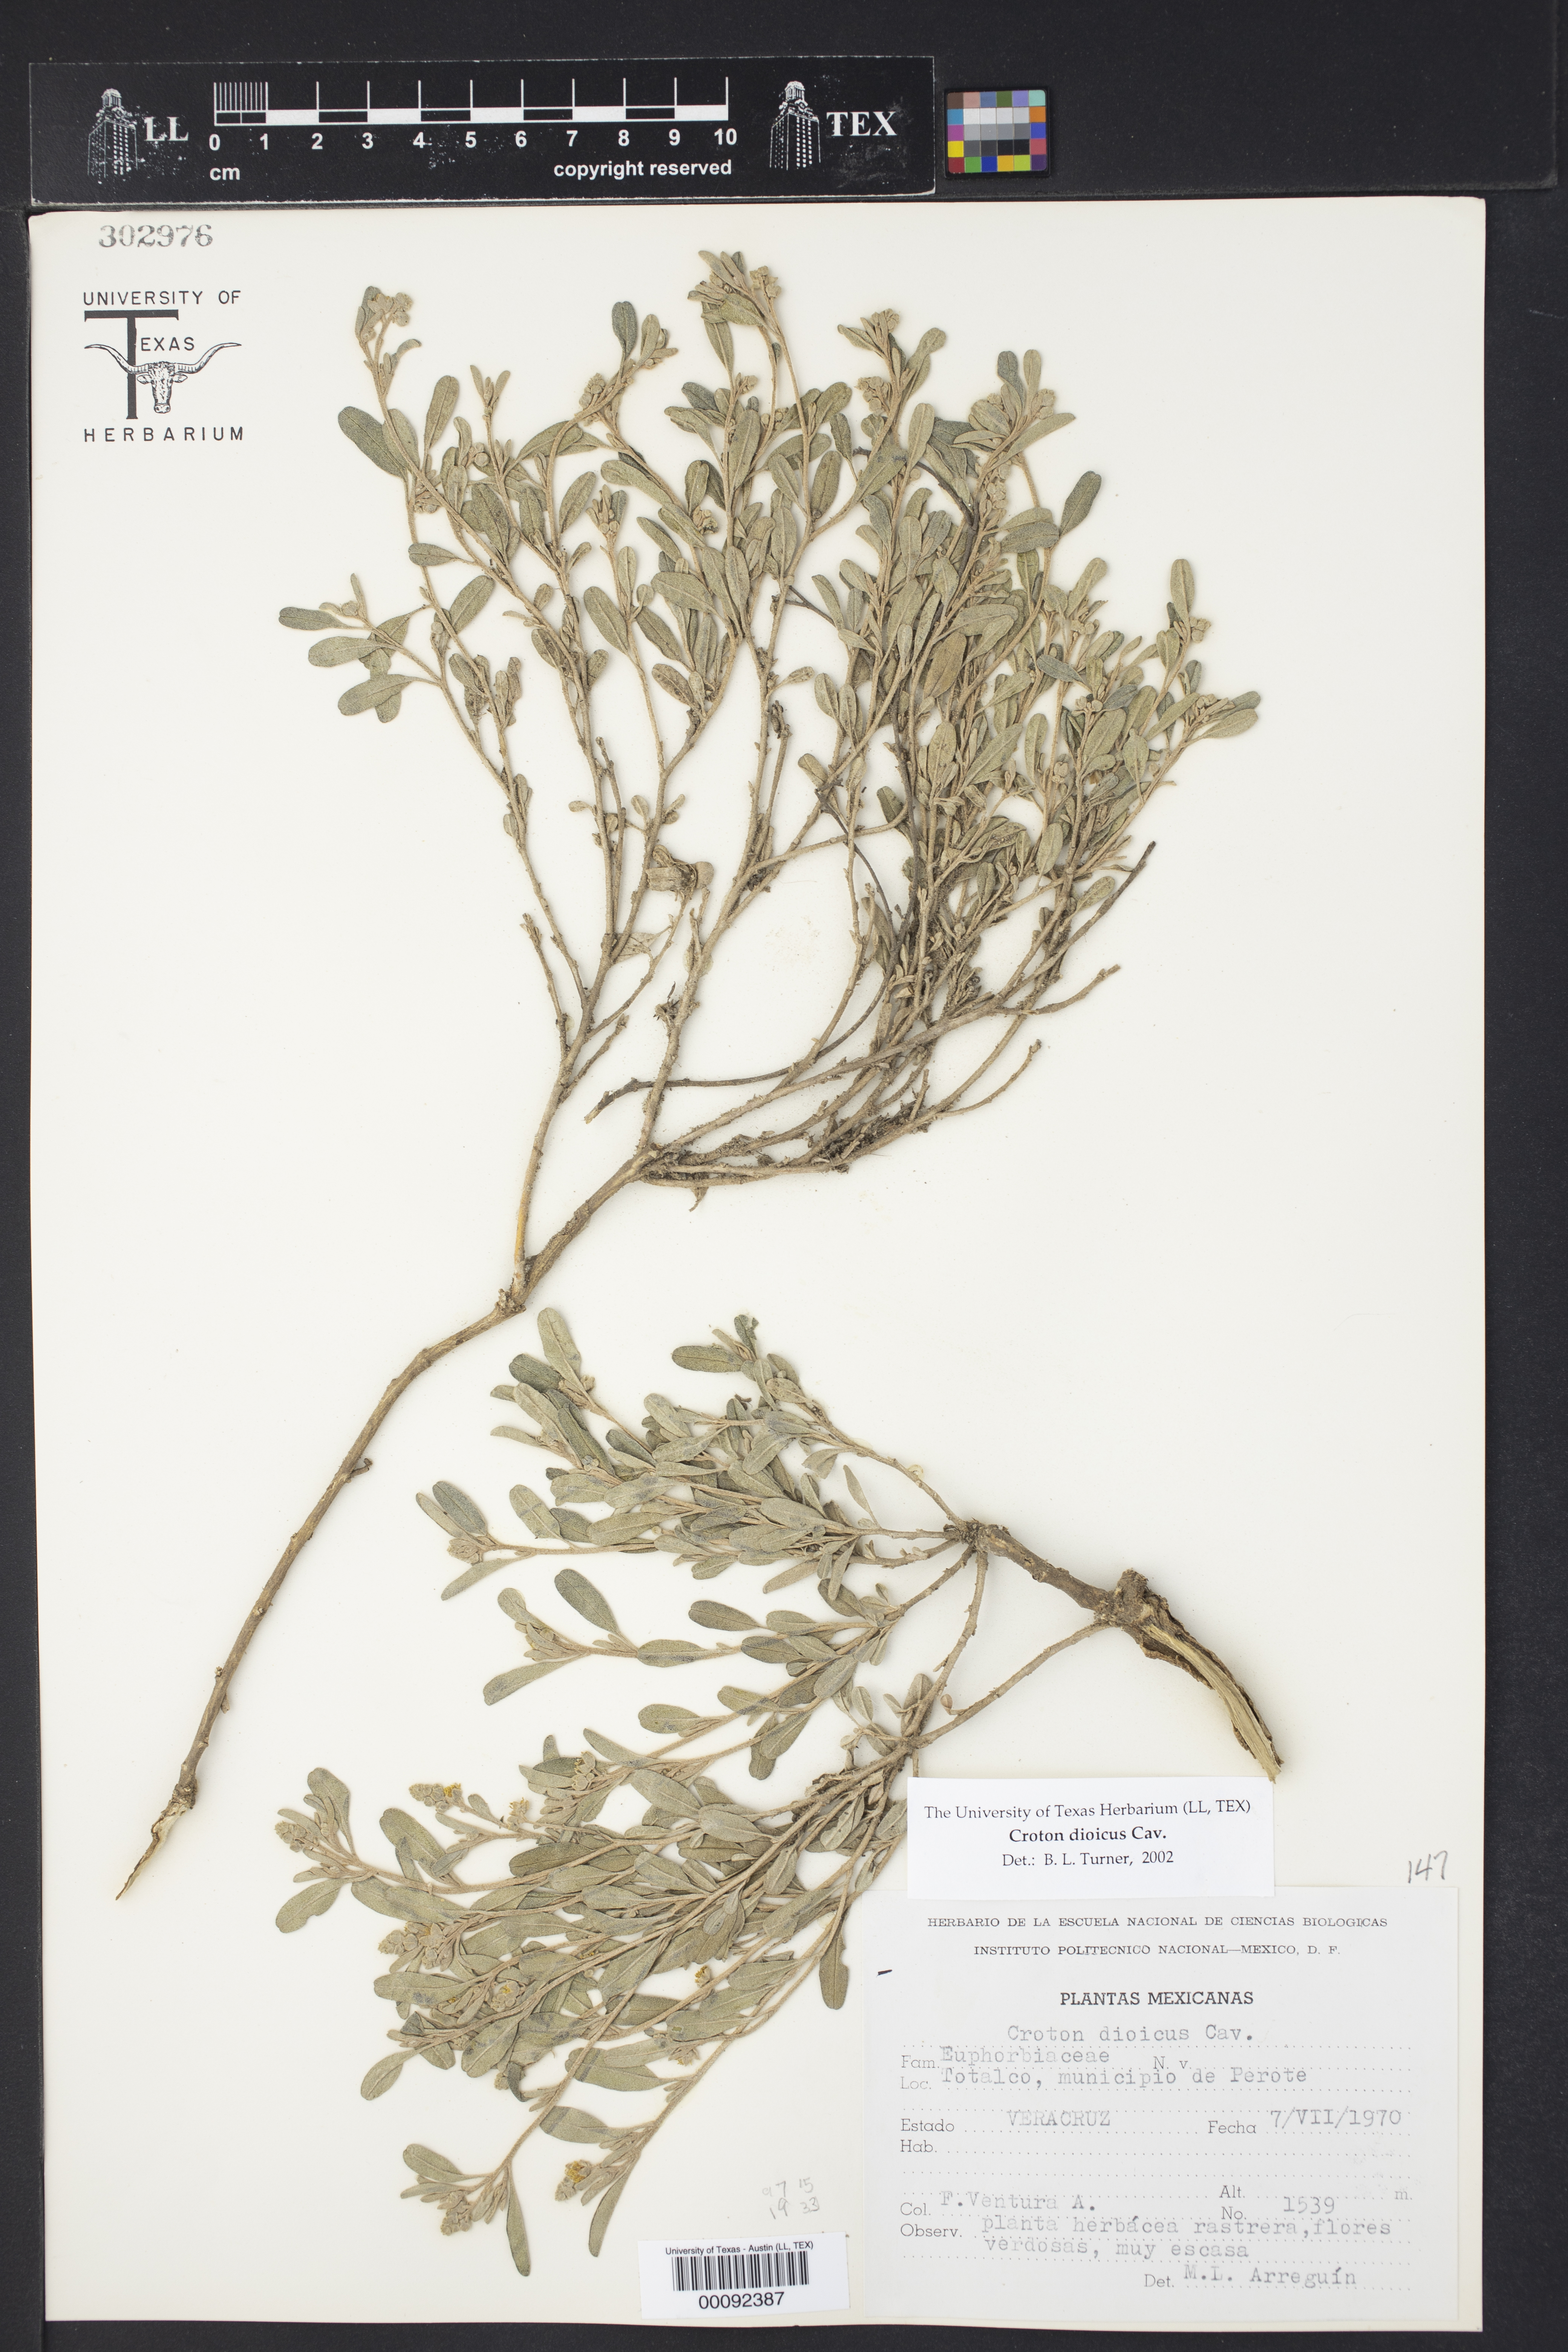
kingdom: Plantae
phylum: Tracheophyta
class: Magnoliopsida
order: Malpighiales
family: Euphorbiaceae
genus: Croton
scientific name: Croton dioicus
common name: Grassland croton
